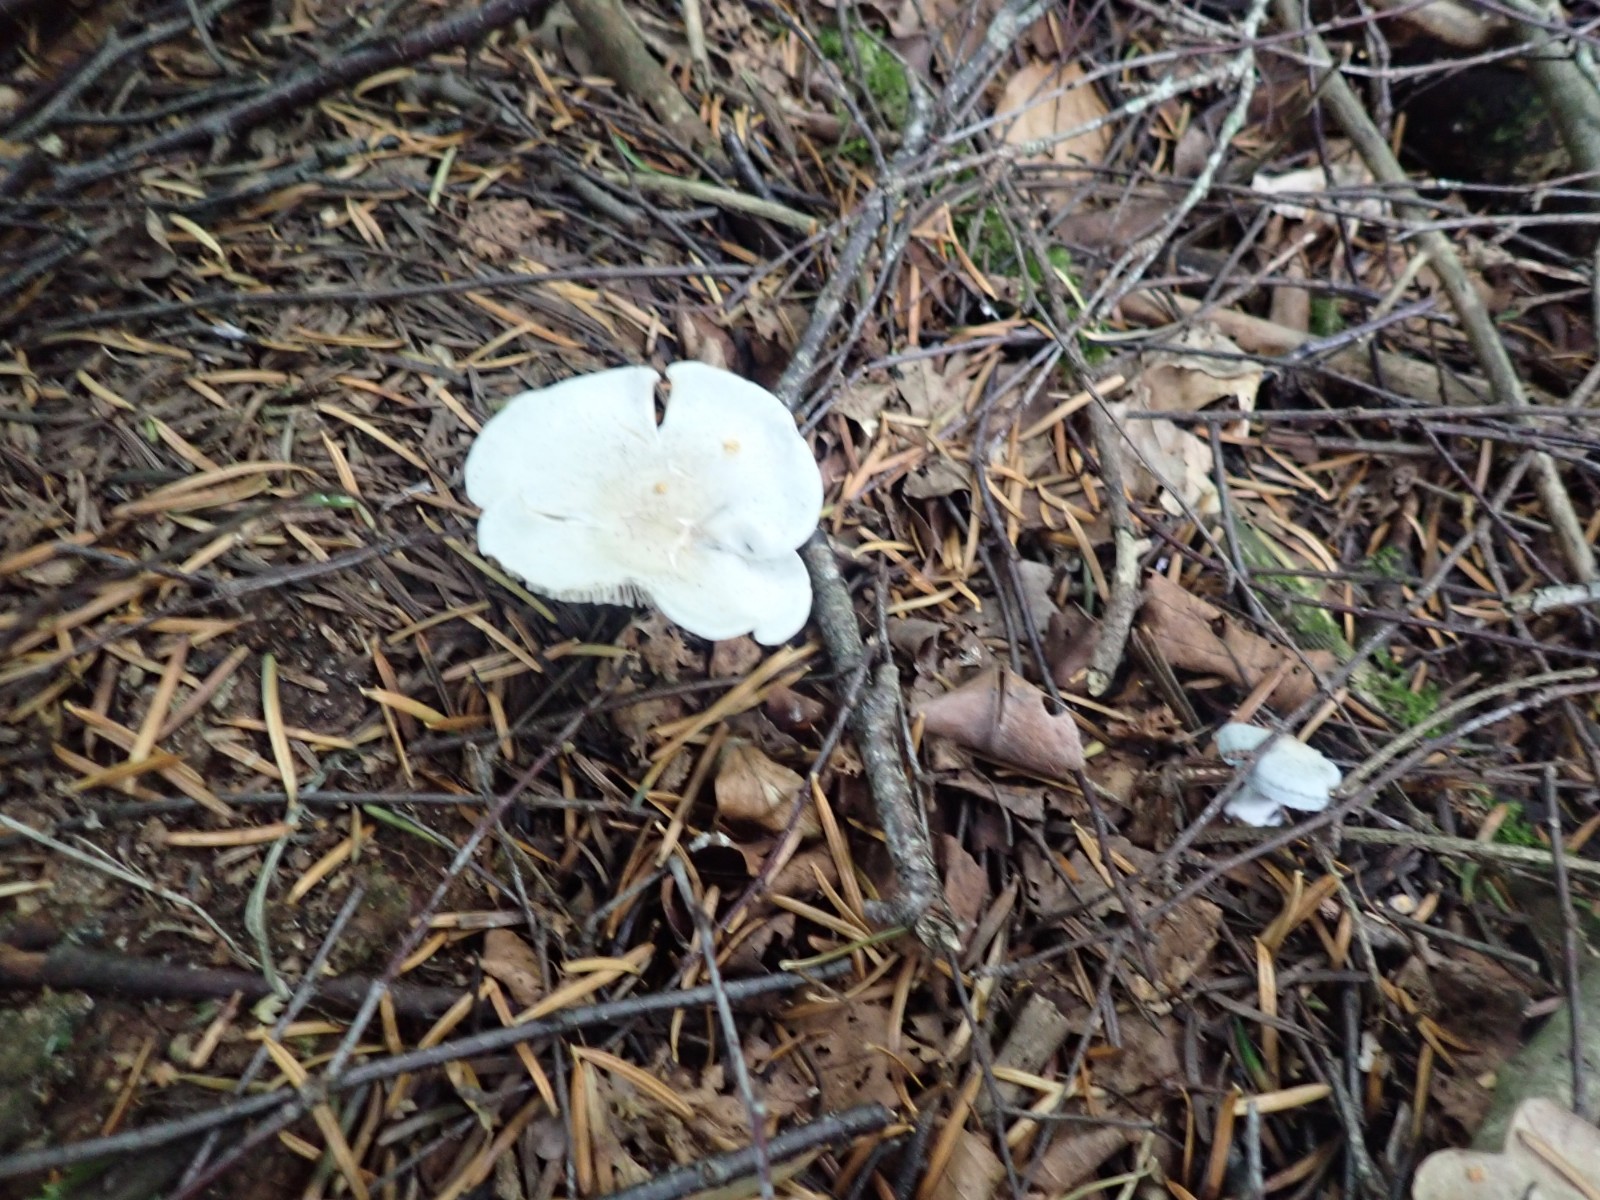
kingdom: Fungi
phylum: Basidiomycota
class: Agaricomycetes
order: Agaricales
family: Tricholomataceae
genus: Clitocybe
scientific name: Clitocybe odora
